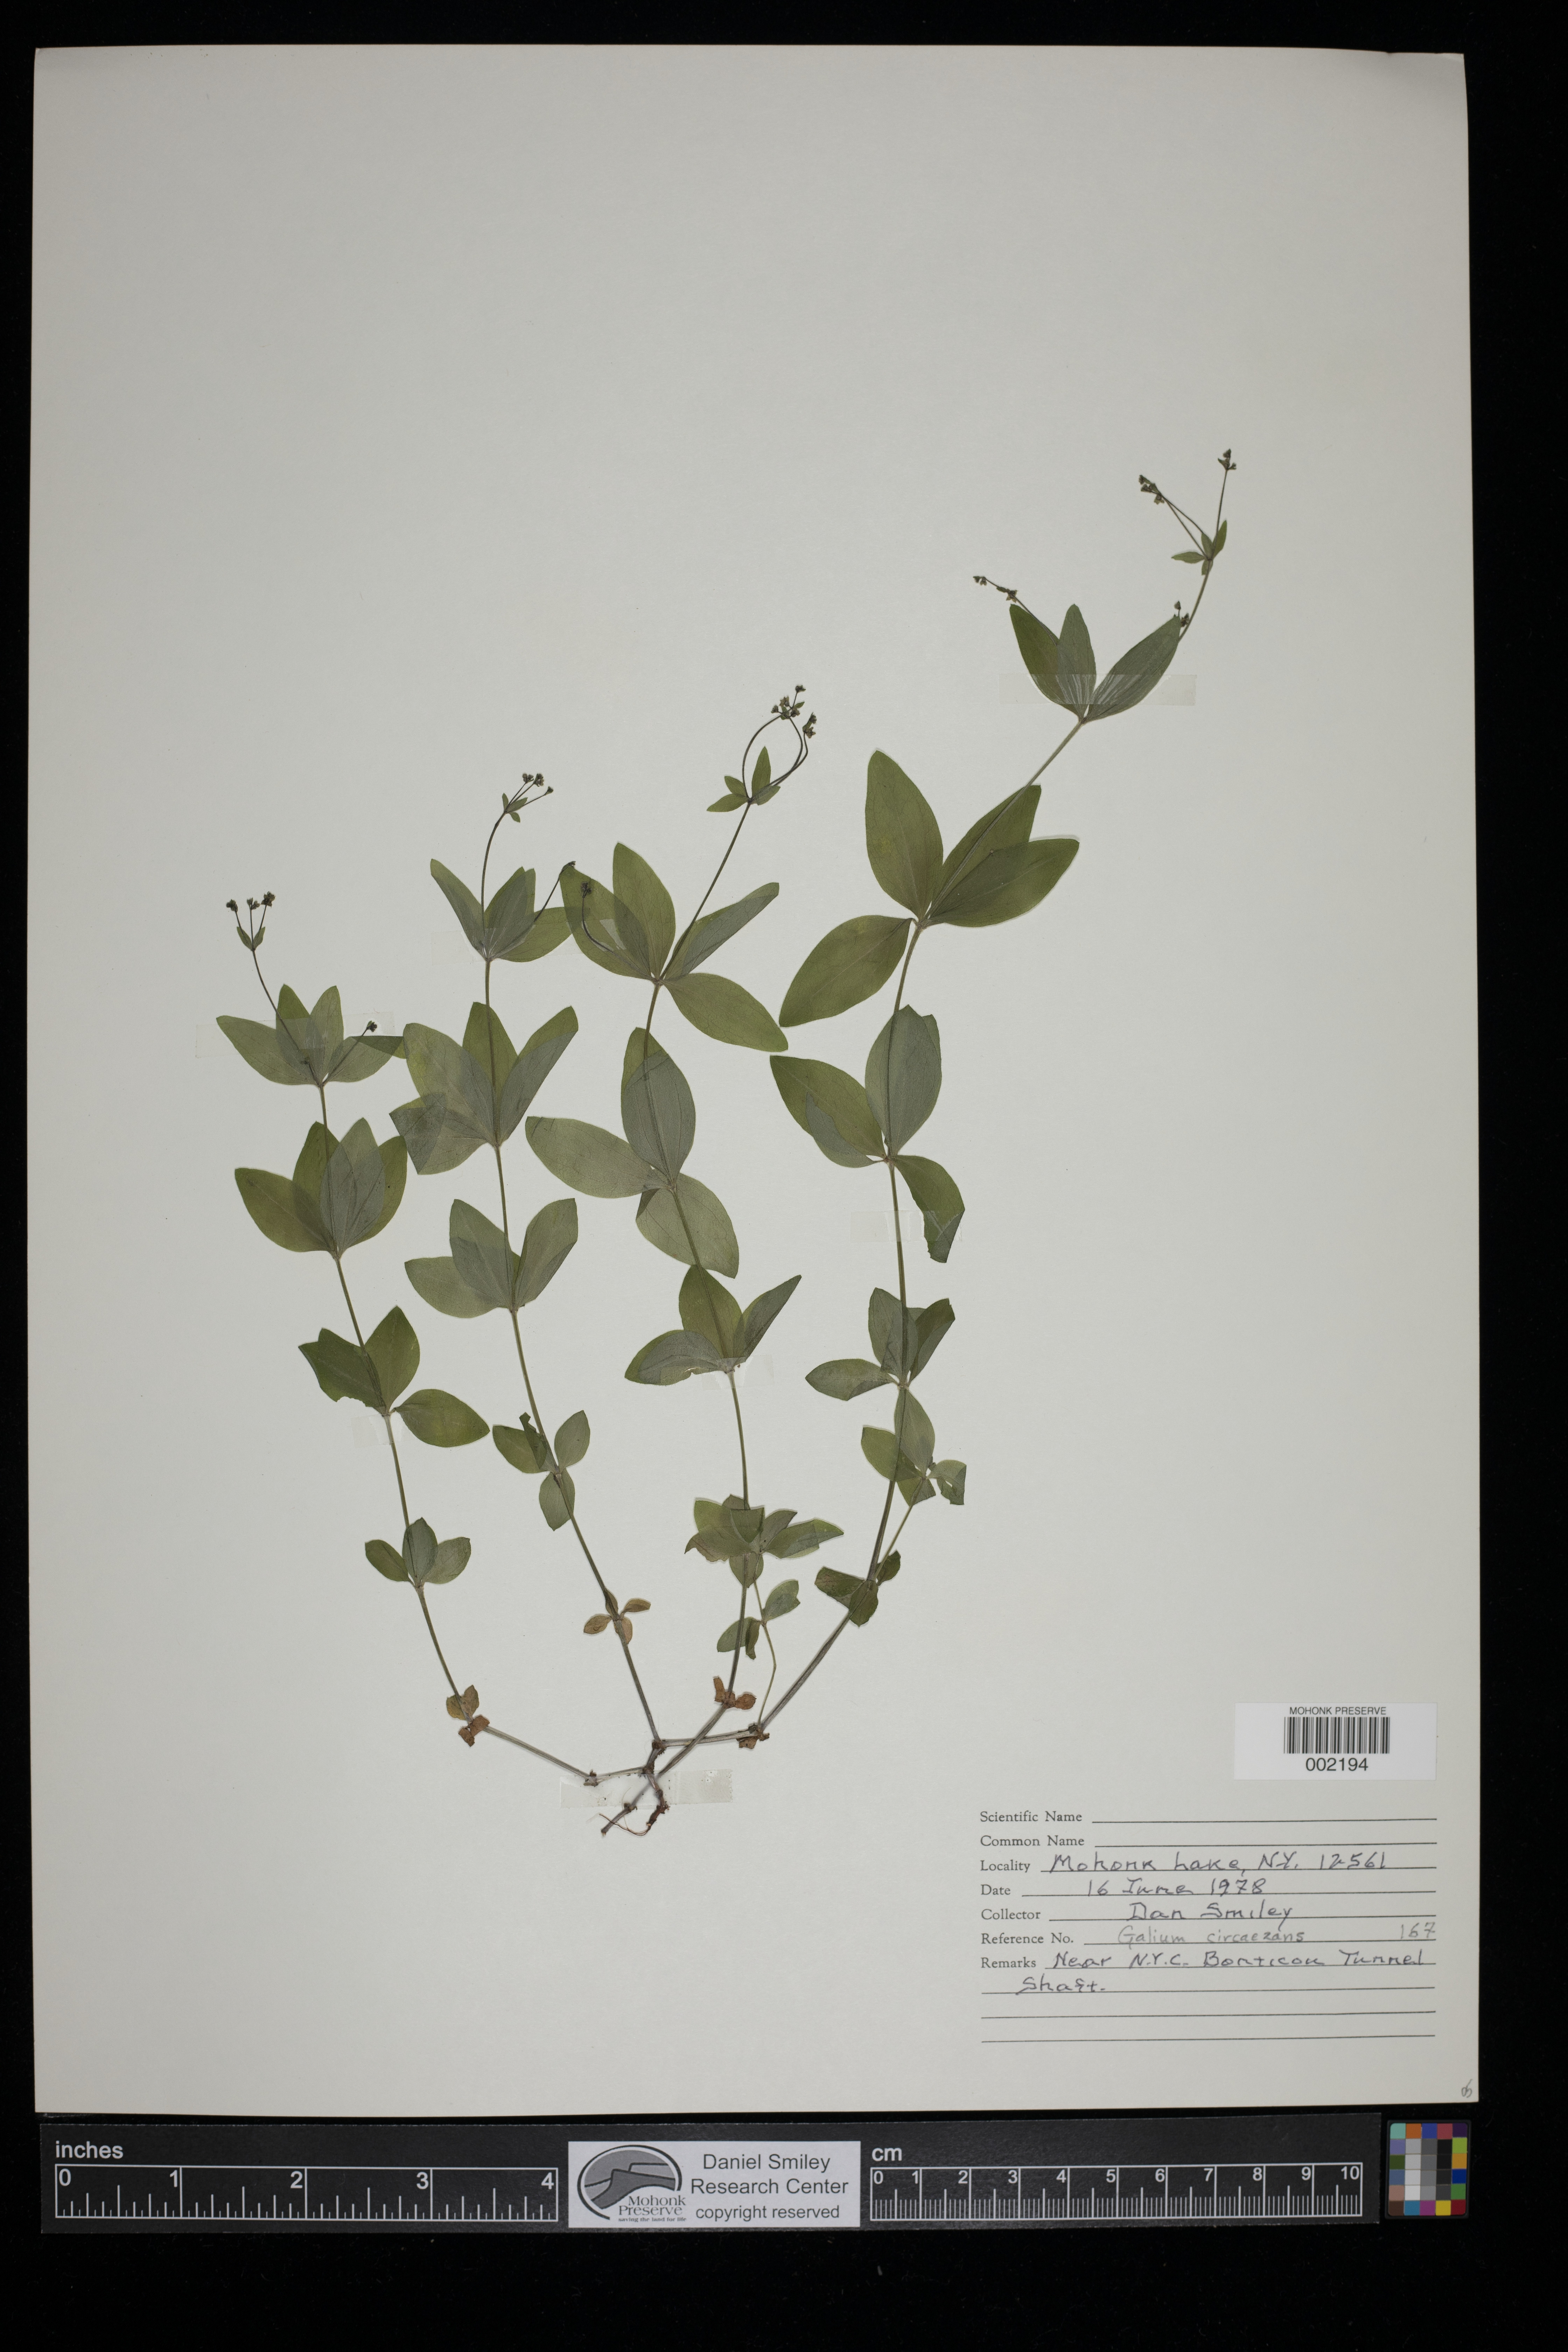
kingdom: Plantae
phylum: Tracheophyta
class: Magnoliopsida
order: Gentianales
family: Rubiaceae
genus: Galium
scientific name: Galium circaezans
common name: Forest bedstraw
